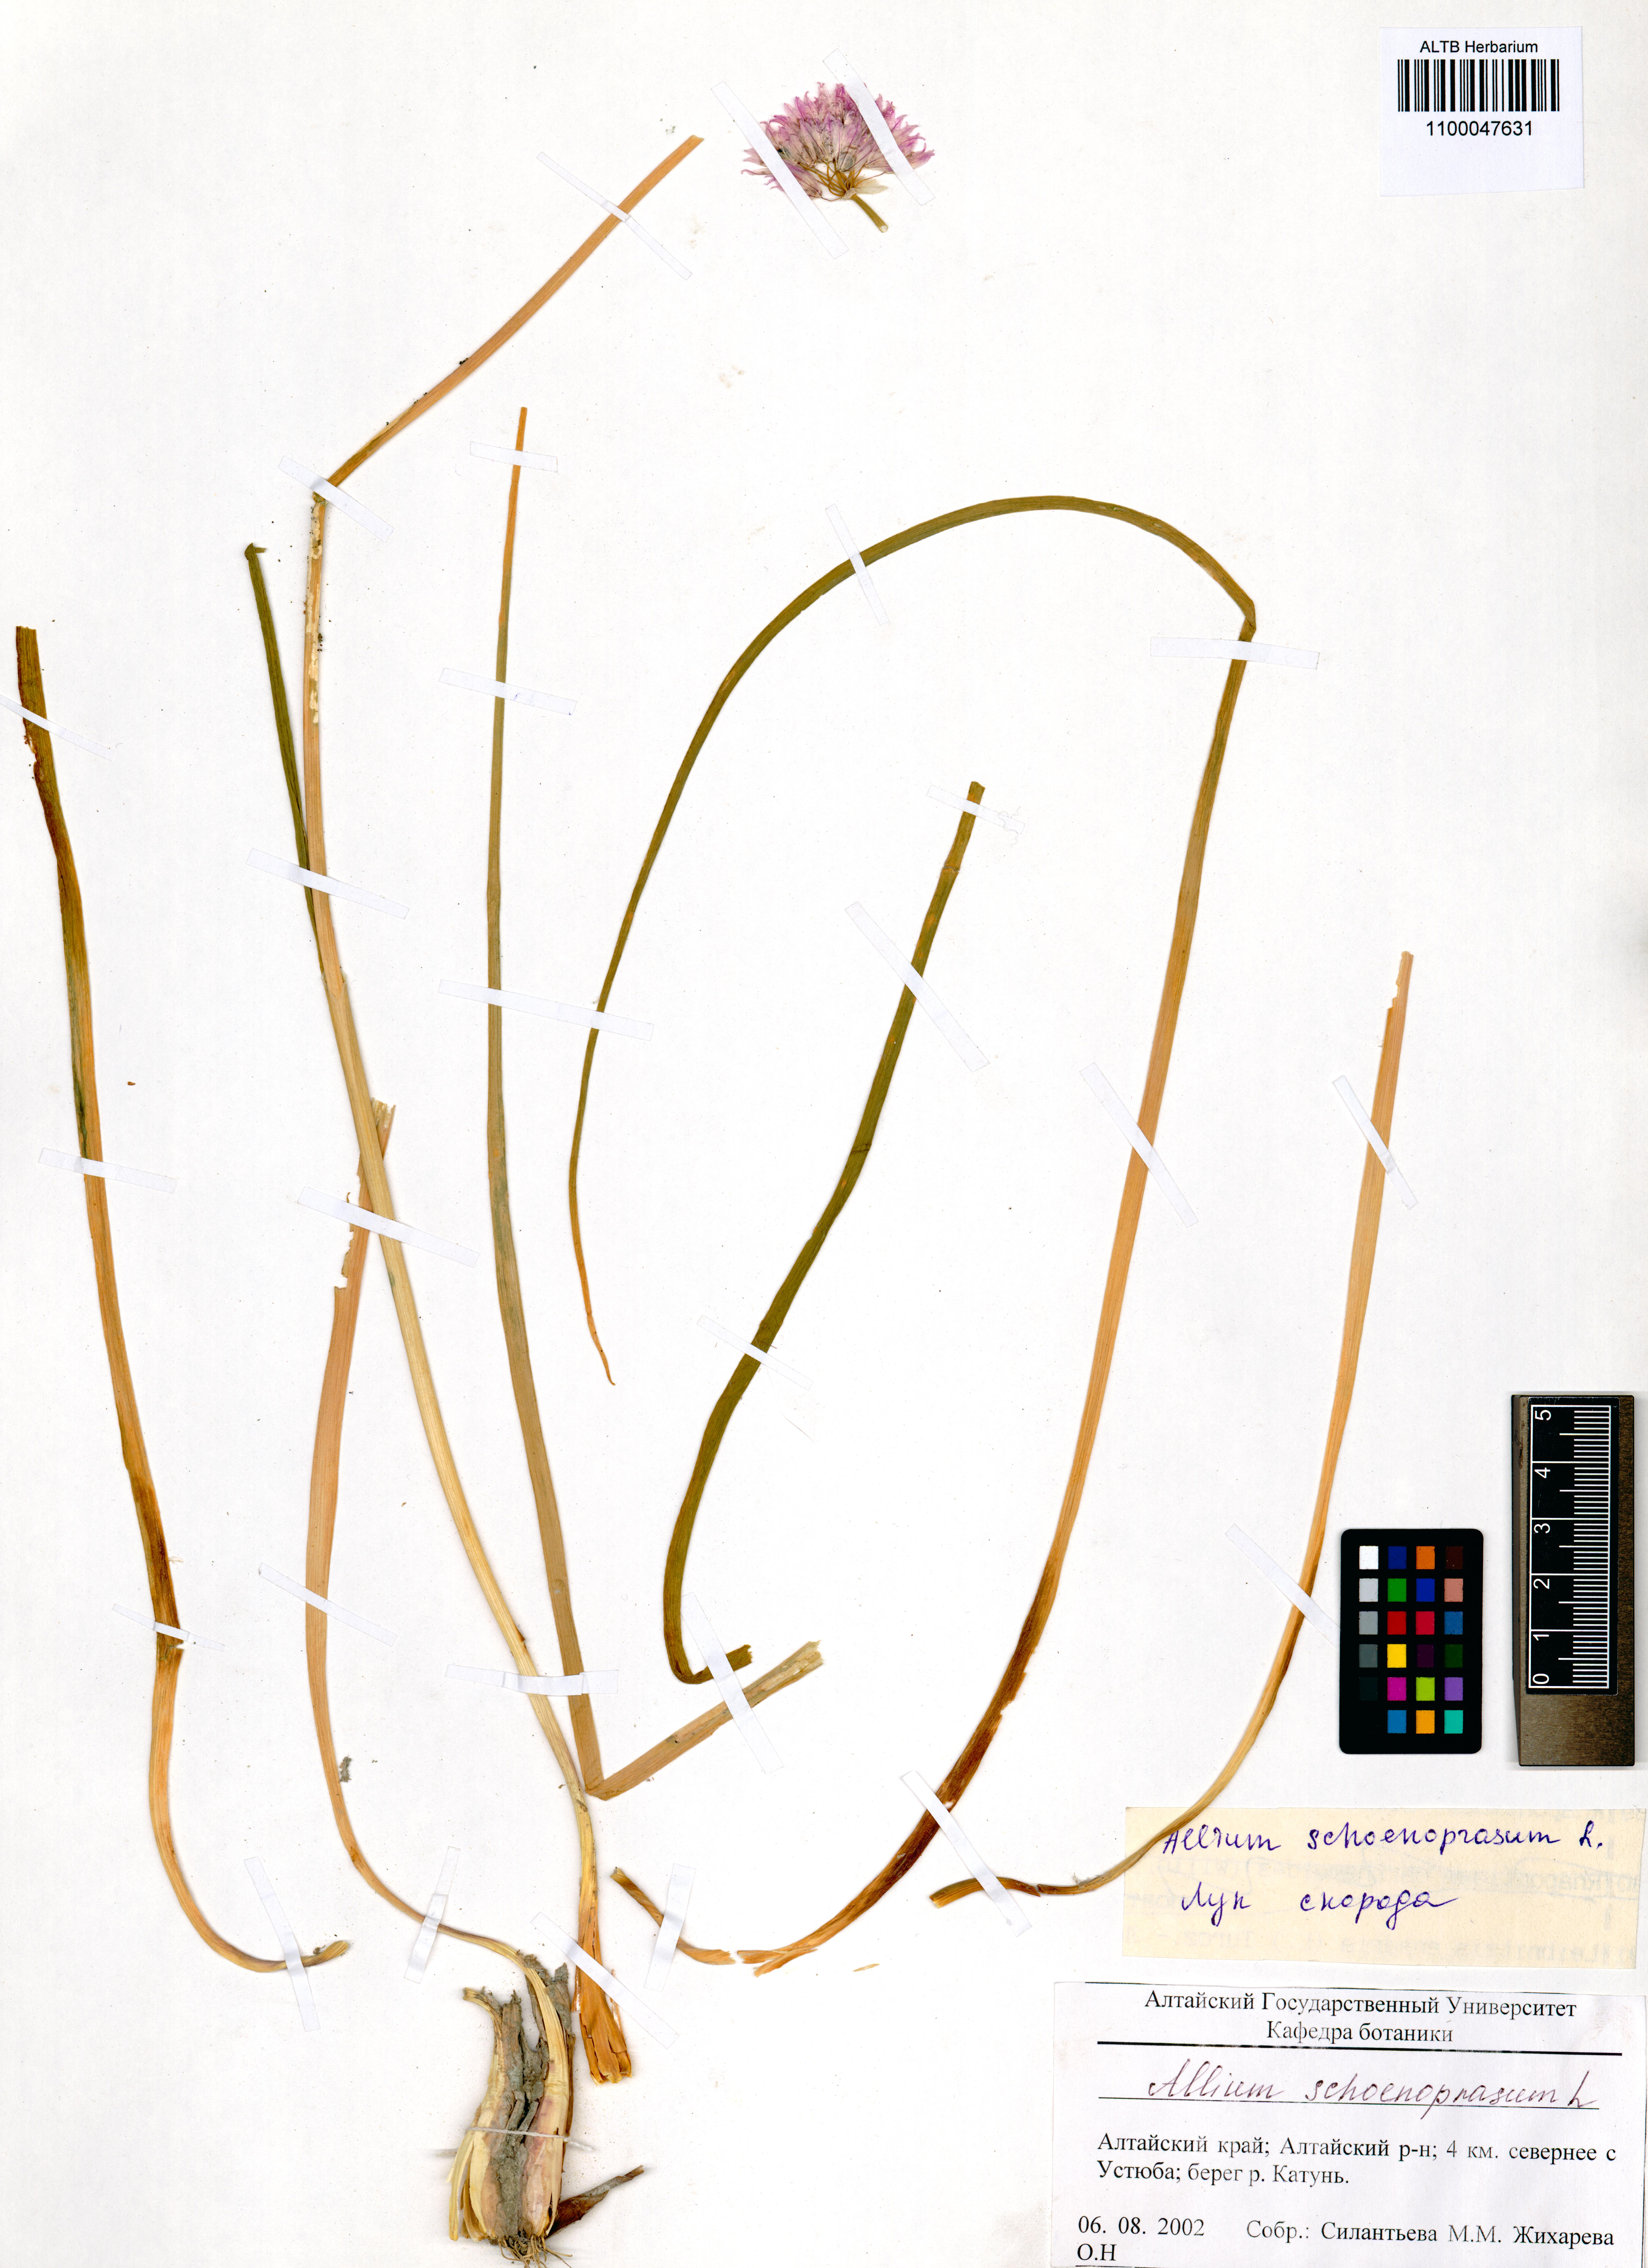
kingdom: Plantae
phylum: Tracheophyta
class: Liliopsida
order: Asparagales
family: Amaryllidaceae
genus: Allium
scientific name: Allium schoenoprasum
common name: Chives
